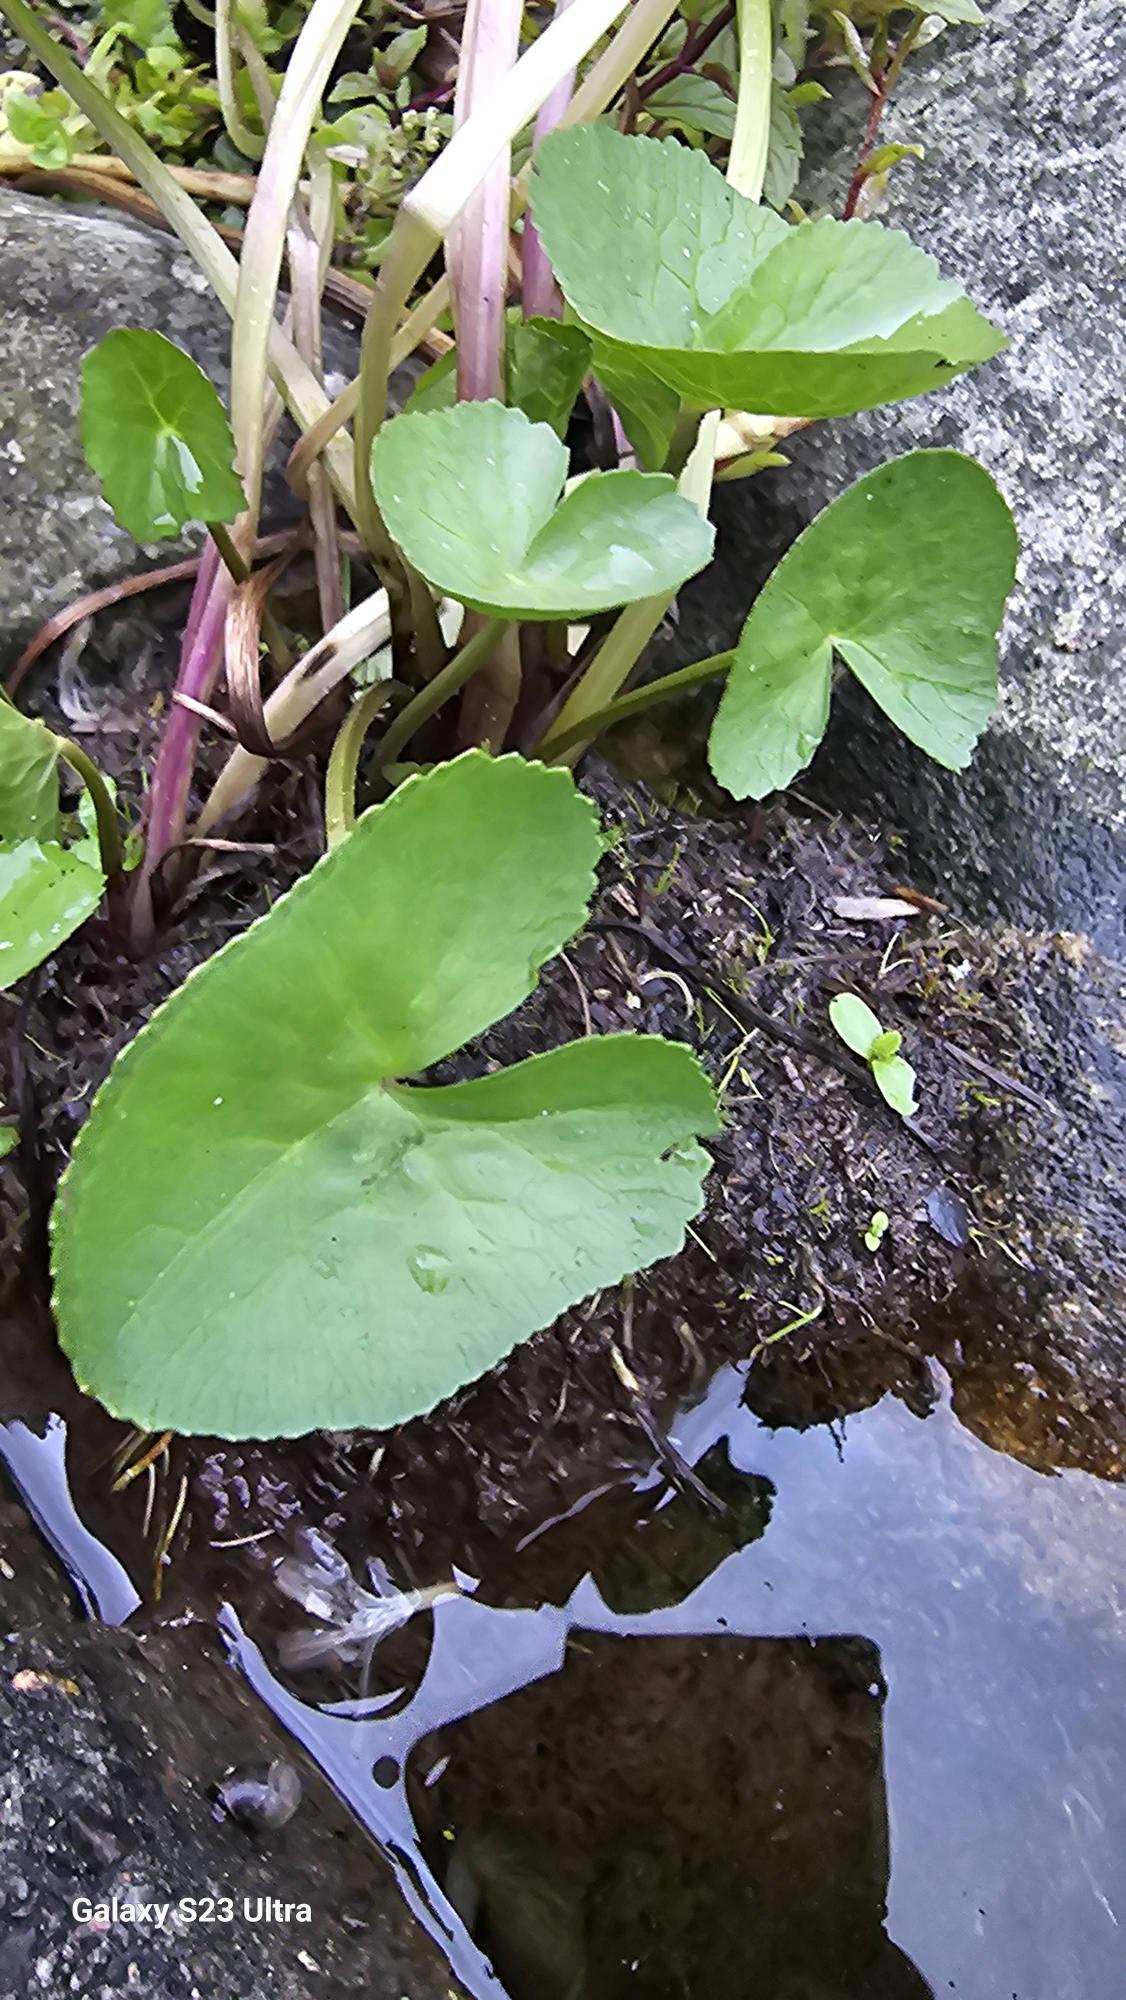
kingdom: Plantae
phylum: Tracheophyta
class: Magnoliopsida
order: Ranunculales
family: Ranunculaceae
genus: Caltha
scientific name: Caltha palustris
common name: Eng-kabbeleje
